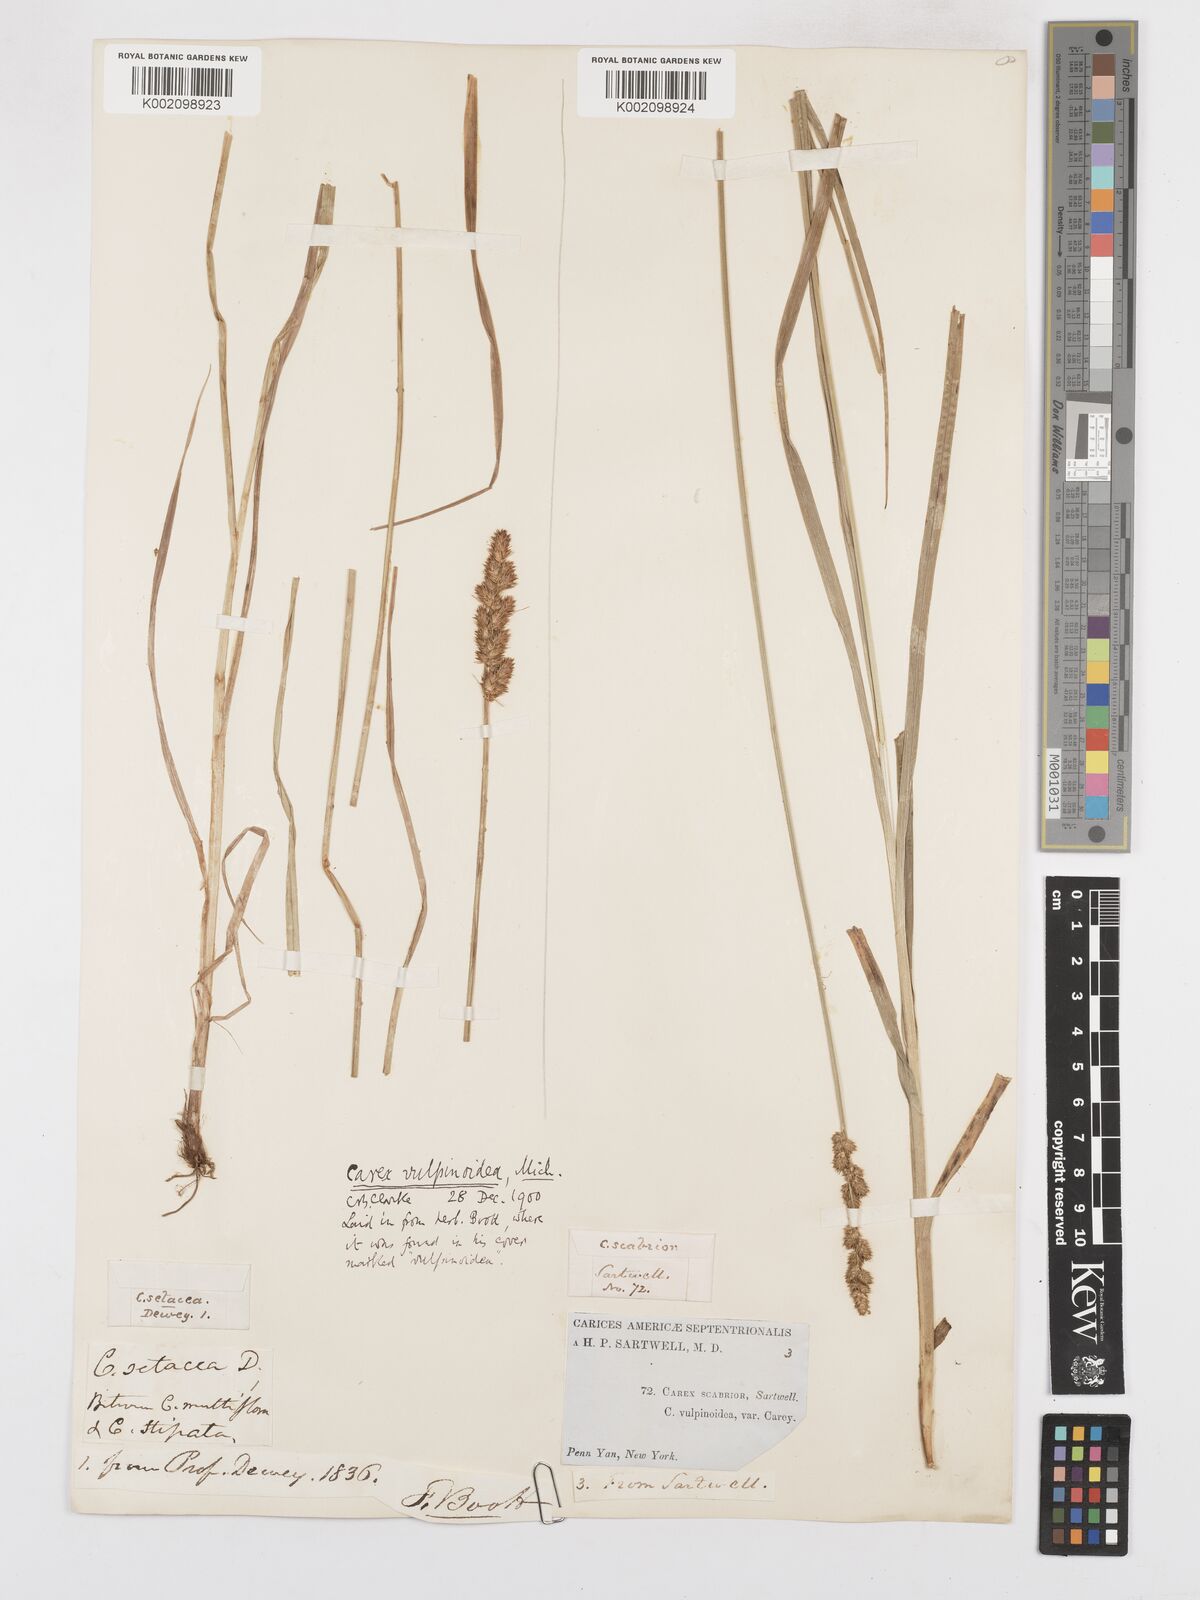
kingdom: Plantae
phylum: Tracheophyta
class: Liliopsida
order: Poales
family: Cyperaceae
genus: Carex
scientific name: Carex vulpinoidea
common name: American fox-sedge
